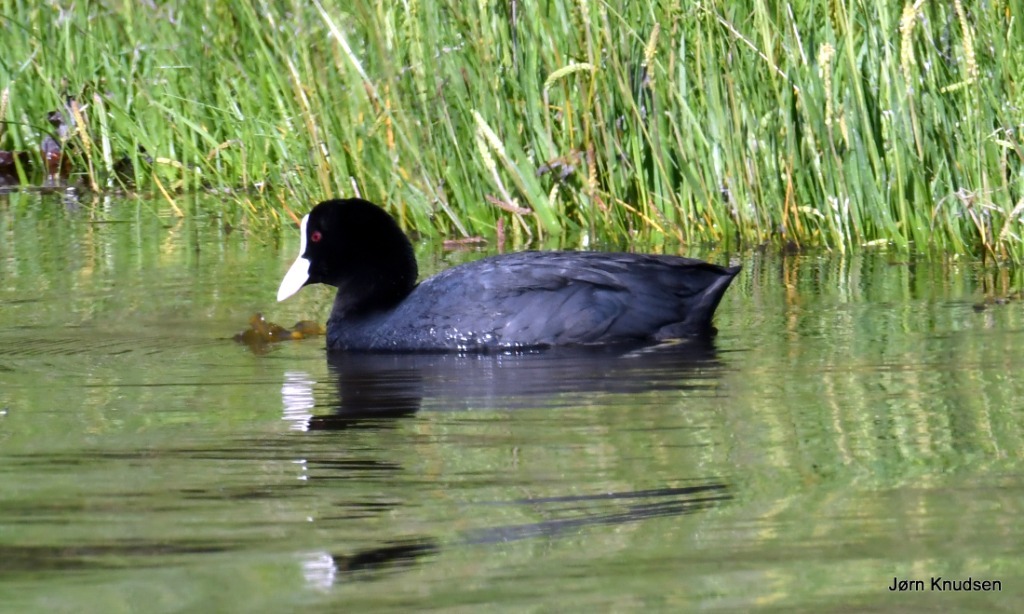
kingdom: Animalia
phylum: Chordata
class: Aves
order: Gruiformes
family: Rallidae
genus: Fulica
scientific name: Fulica atra
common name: Blishøne
